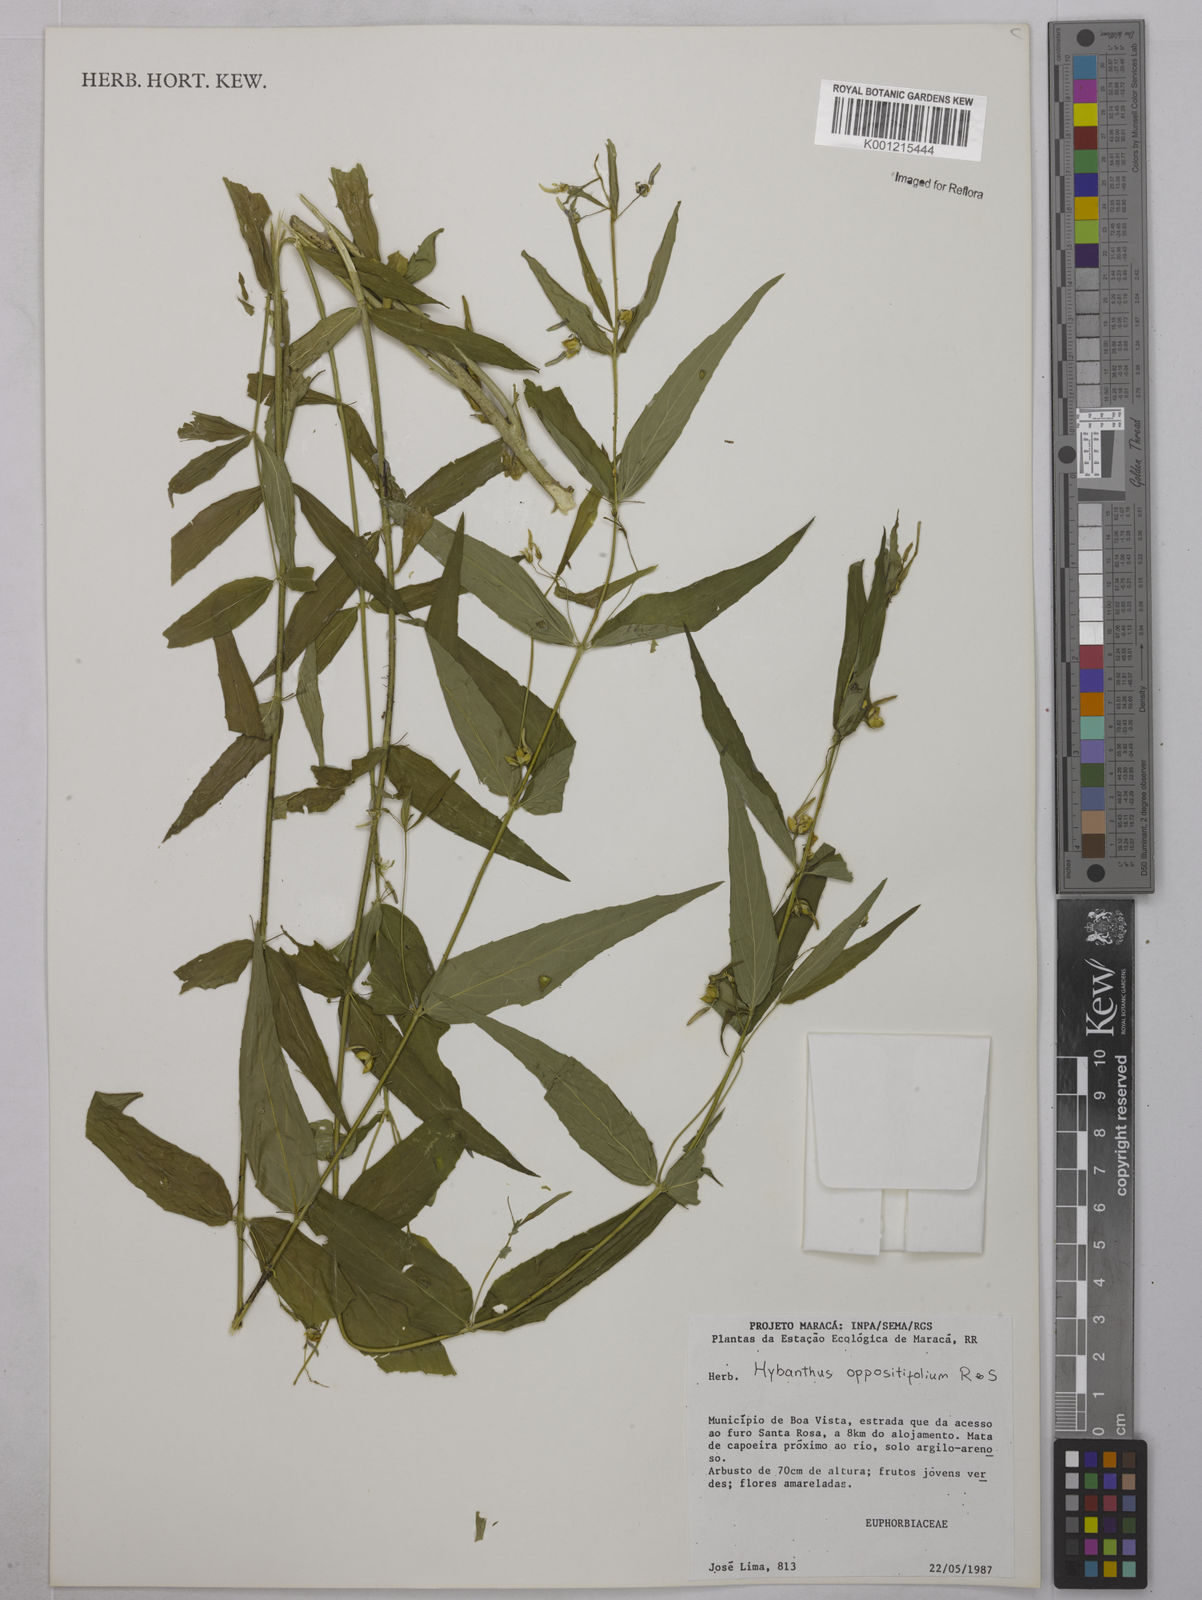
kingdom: Plantae
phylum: Tracheophyta
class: Magnoliopsida
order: Malpighiales
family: Violaceae
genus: Hybanthus
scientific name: Hybanthus
